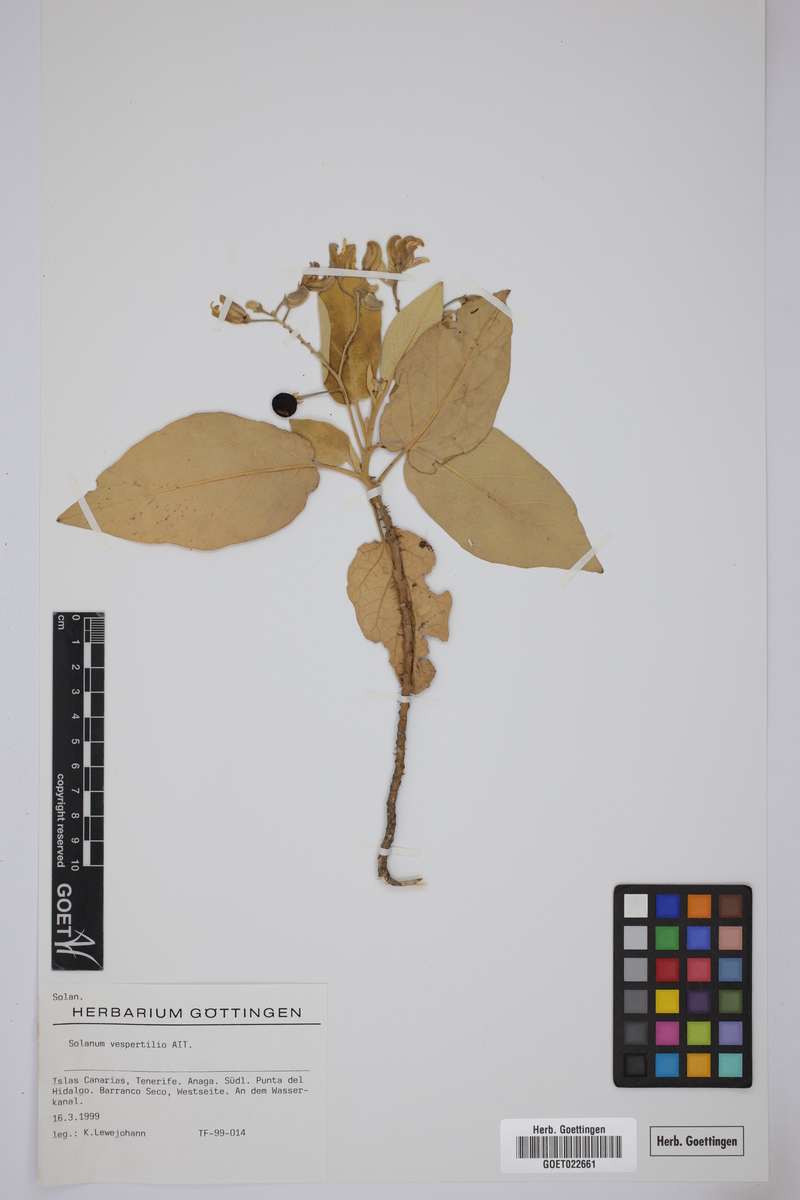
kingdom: Plantae
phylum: Tracheophyta
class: Magnoliopsida
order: Solanales
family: Solanaceae
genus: Solanum
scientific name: Solanum vespertilio
